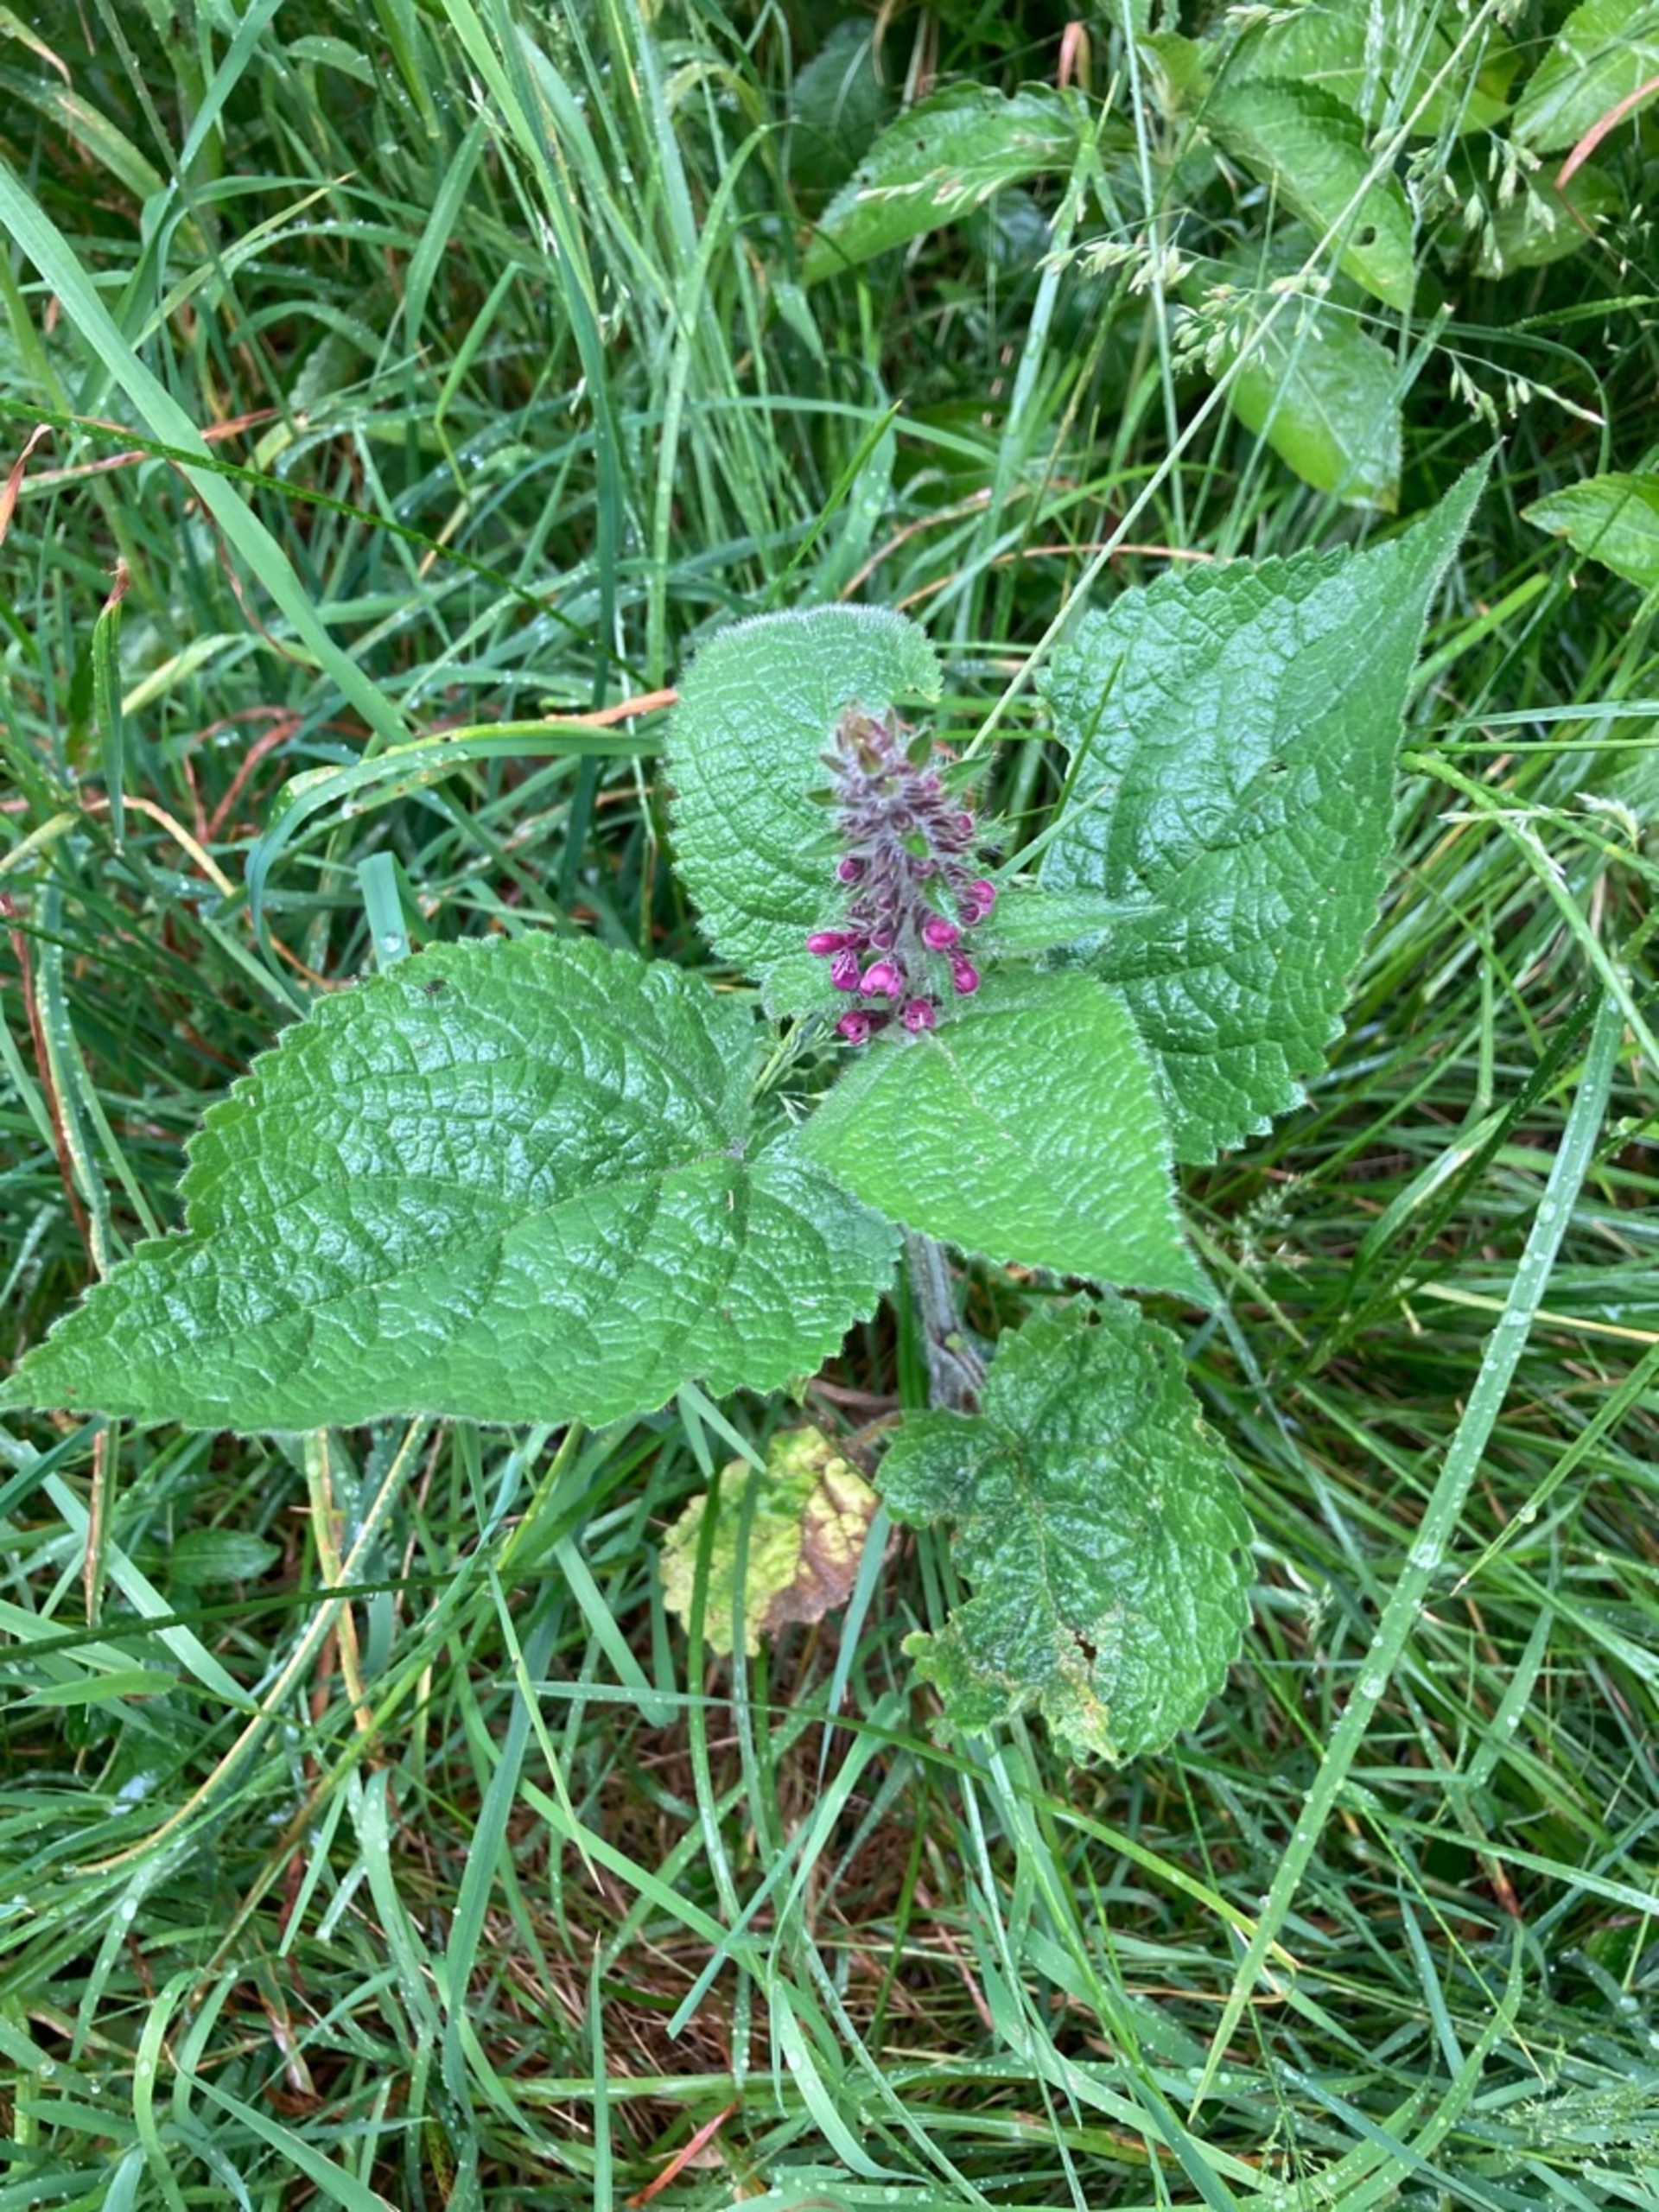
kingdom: Plantae
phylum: Tracheophyta
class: Magnoliopsida
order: Lamiales
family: Lamiaceae
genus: Stachys
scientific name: Stachys sylvatica
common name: Skov-galtetand
